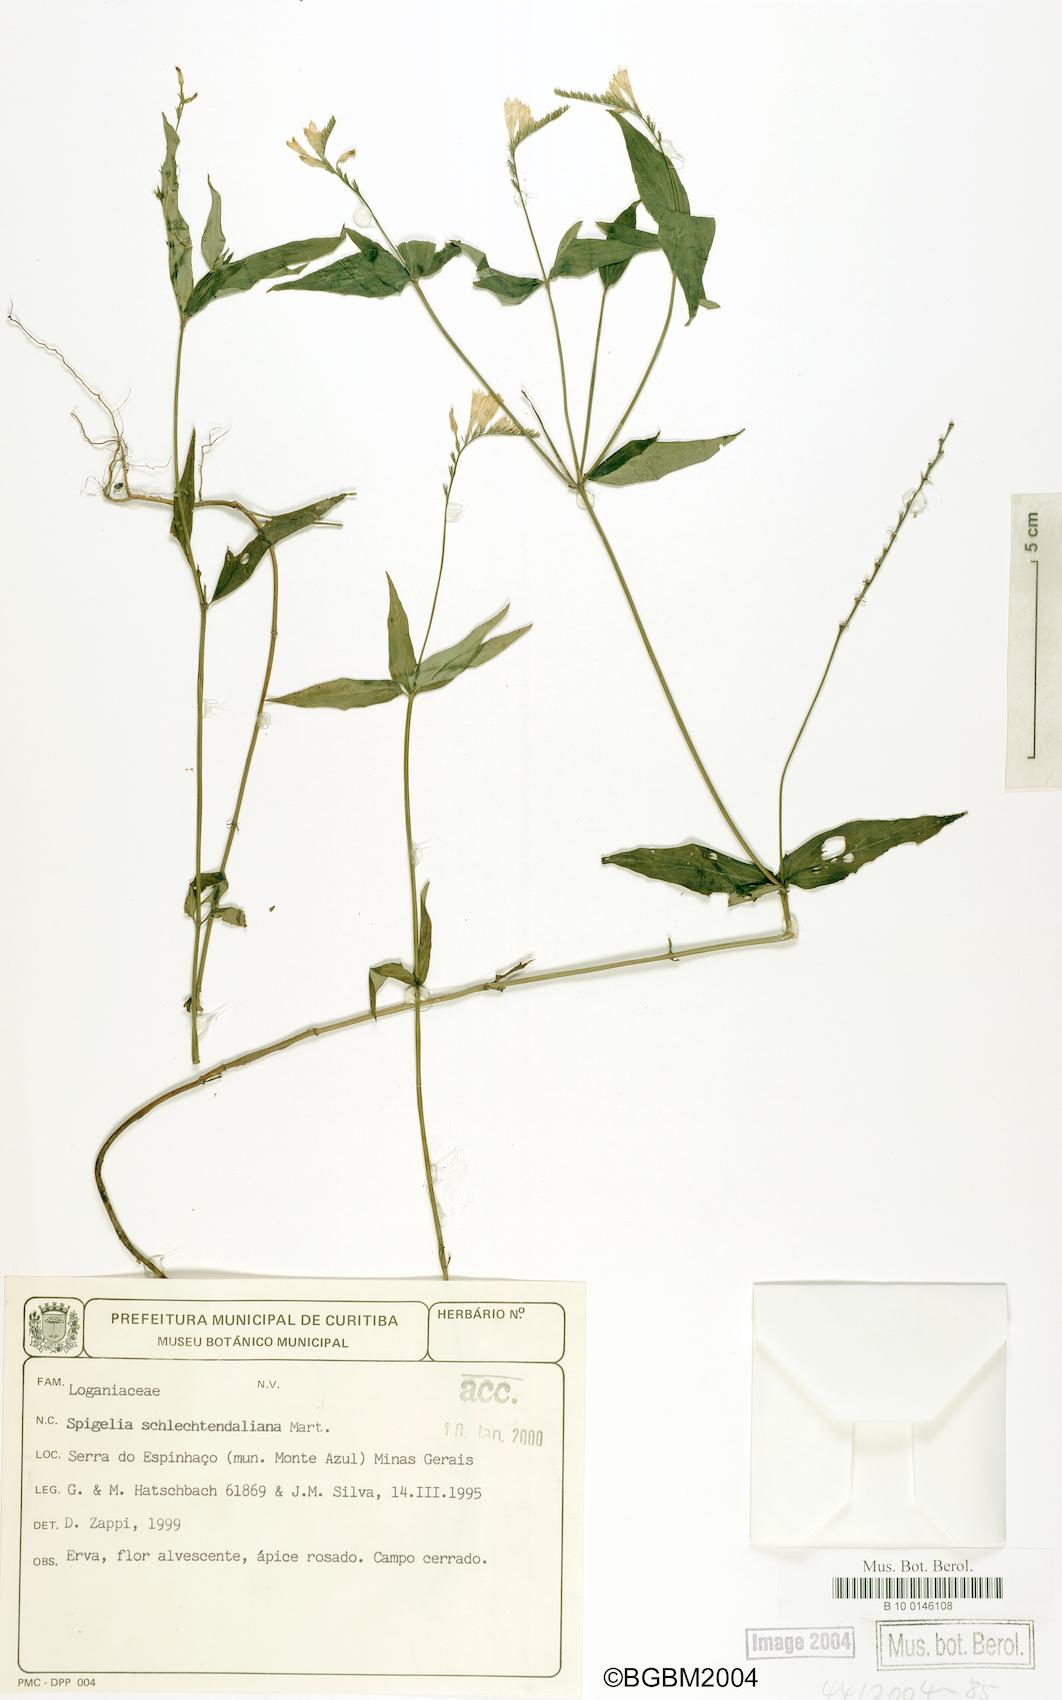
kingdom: Plantae
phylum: Tracheophyta
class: Magnoliopsida
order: Gentianales
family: Loganiaceae
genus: Spigelia
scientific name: Spigelia schlechtendaliana
